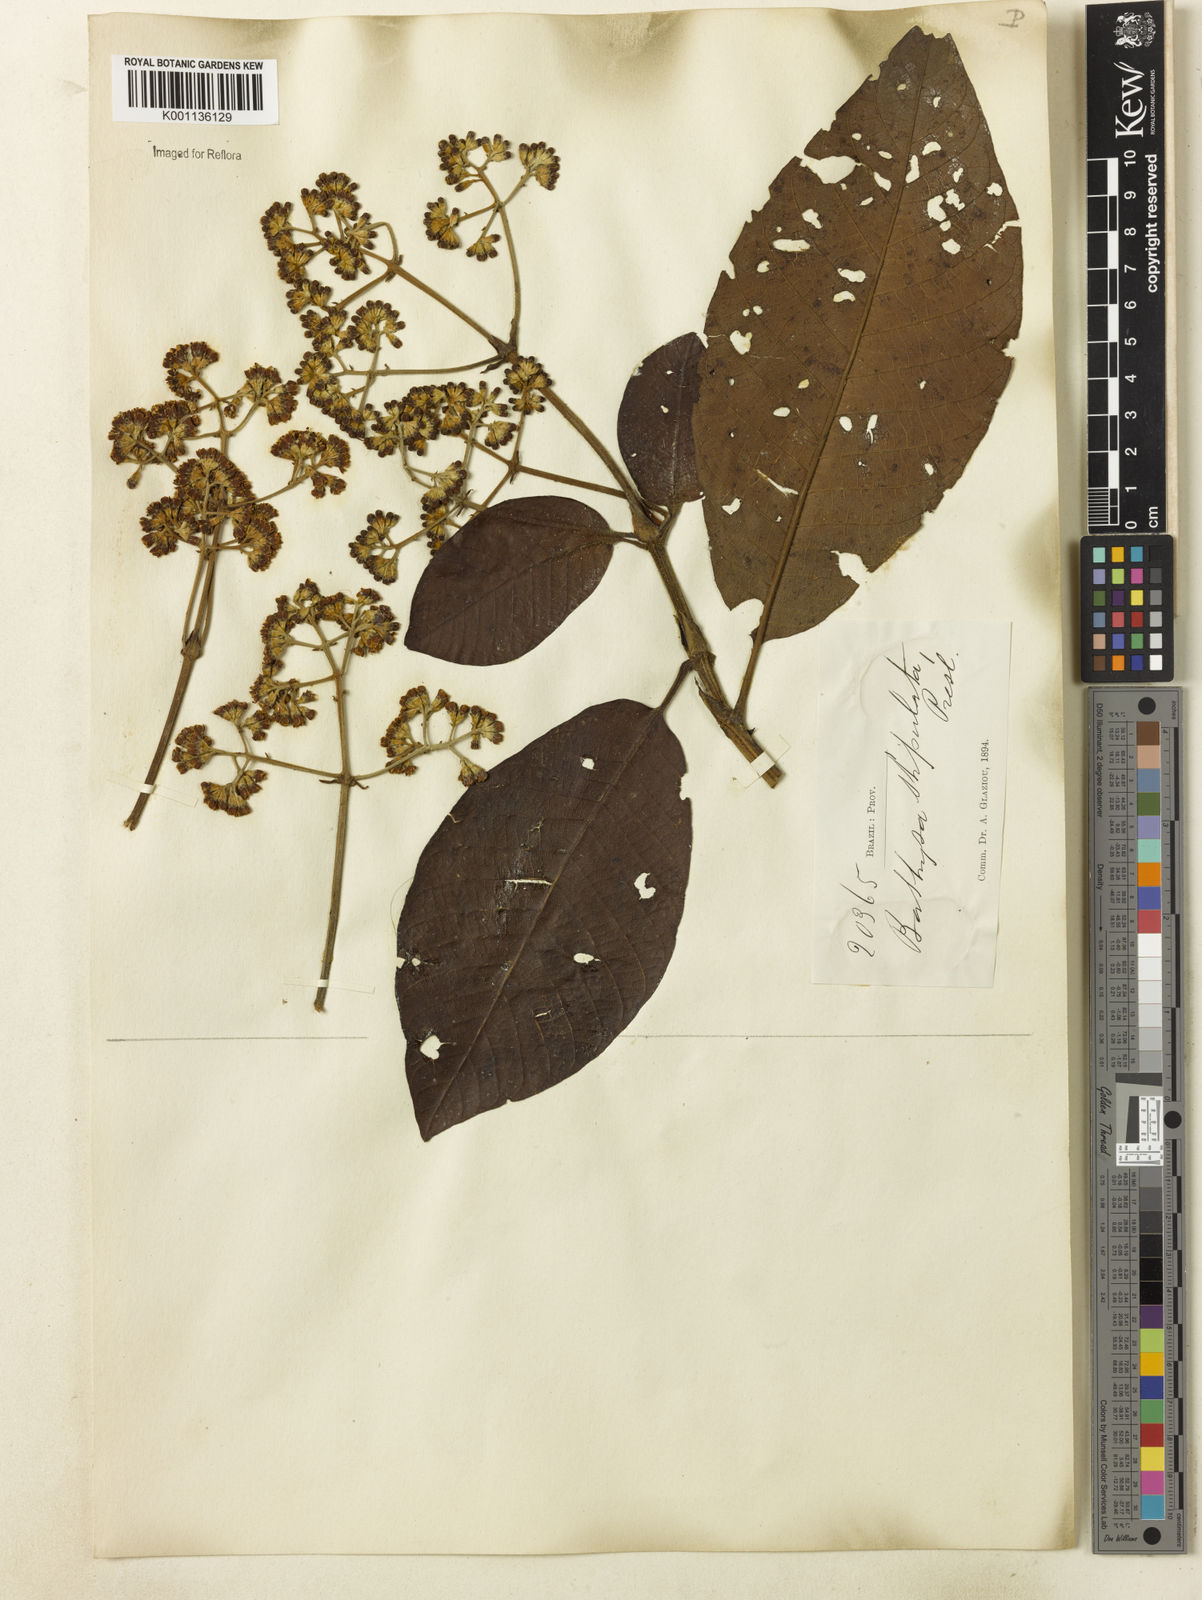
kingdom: Plantae
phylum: Tracheophyta
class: Magnoliopsida
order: Gentianales
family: Rubiaceae
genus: Bathysa
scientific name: Bathysa stipulata
